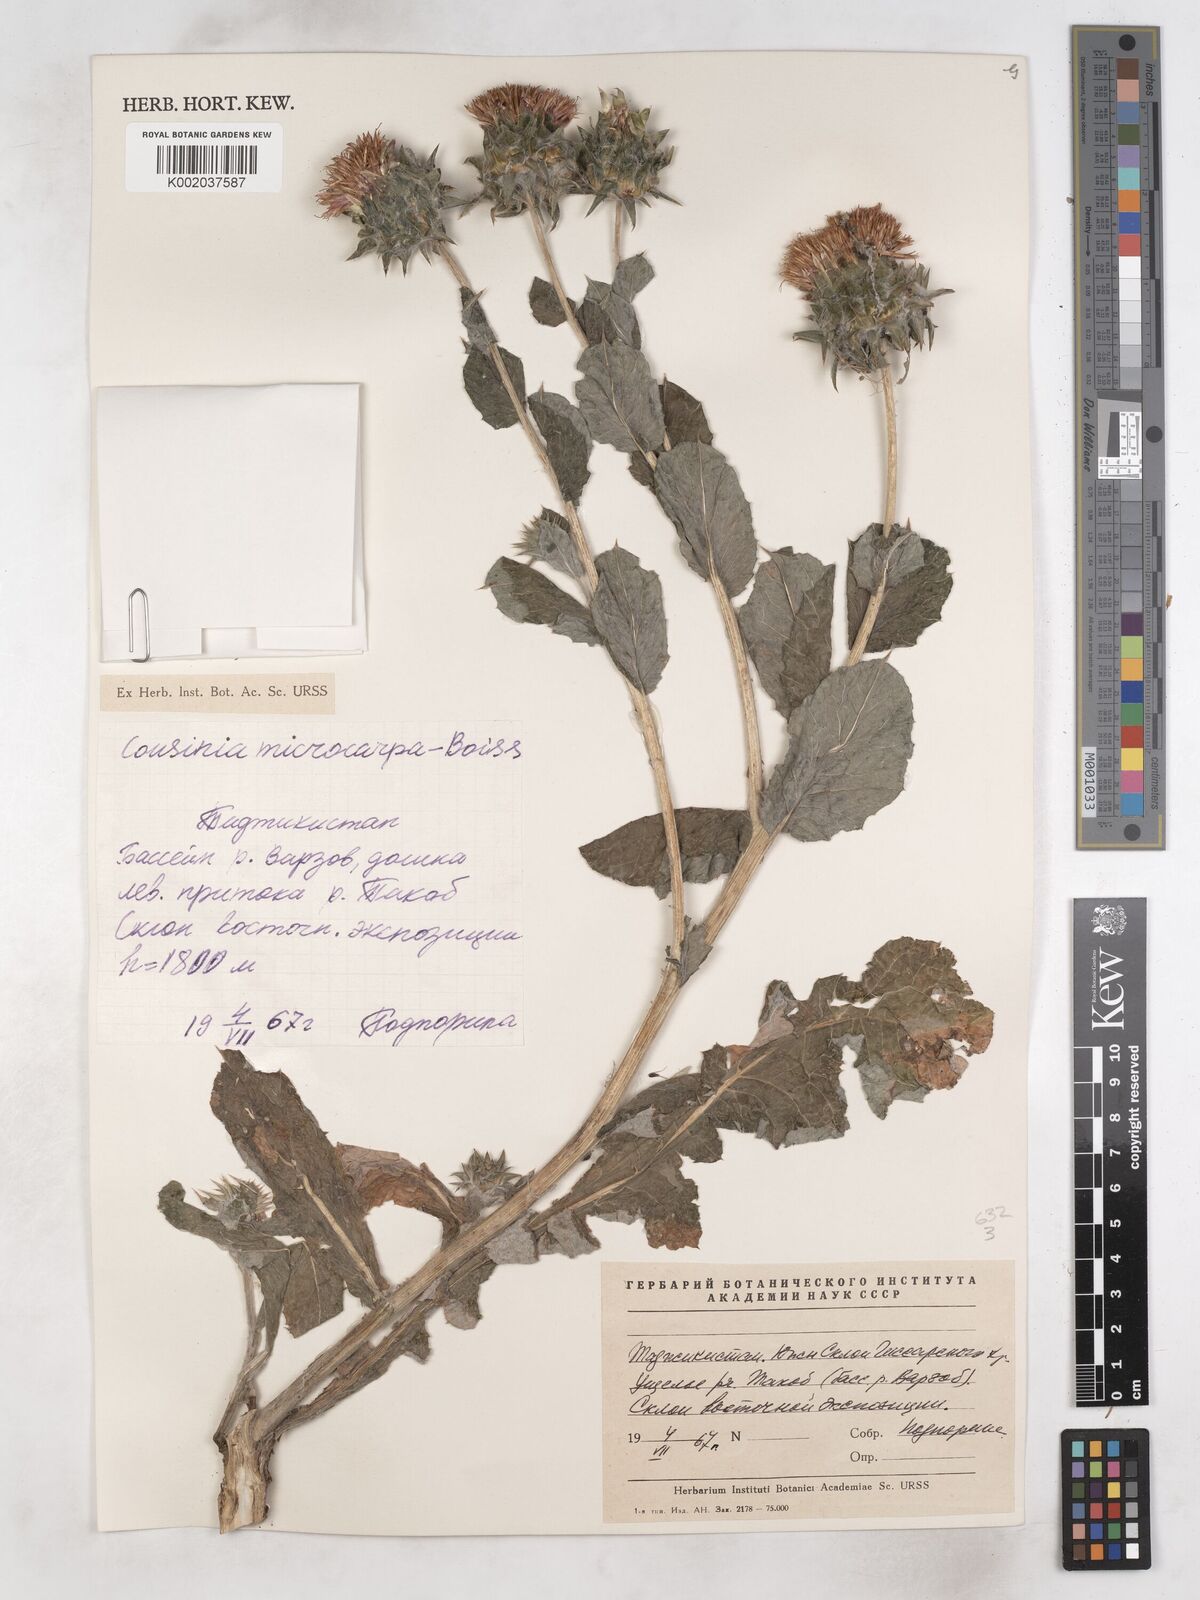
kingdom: Plantae
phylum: Tracheophyta
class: Magnoliopsida
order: Asterales
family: Asteraceae
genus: Cousinia
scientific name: Cousinia microcarpa
